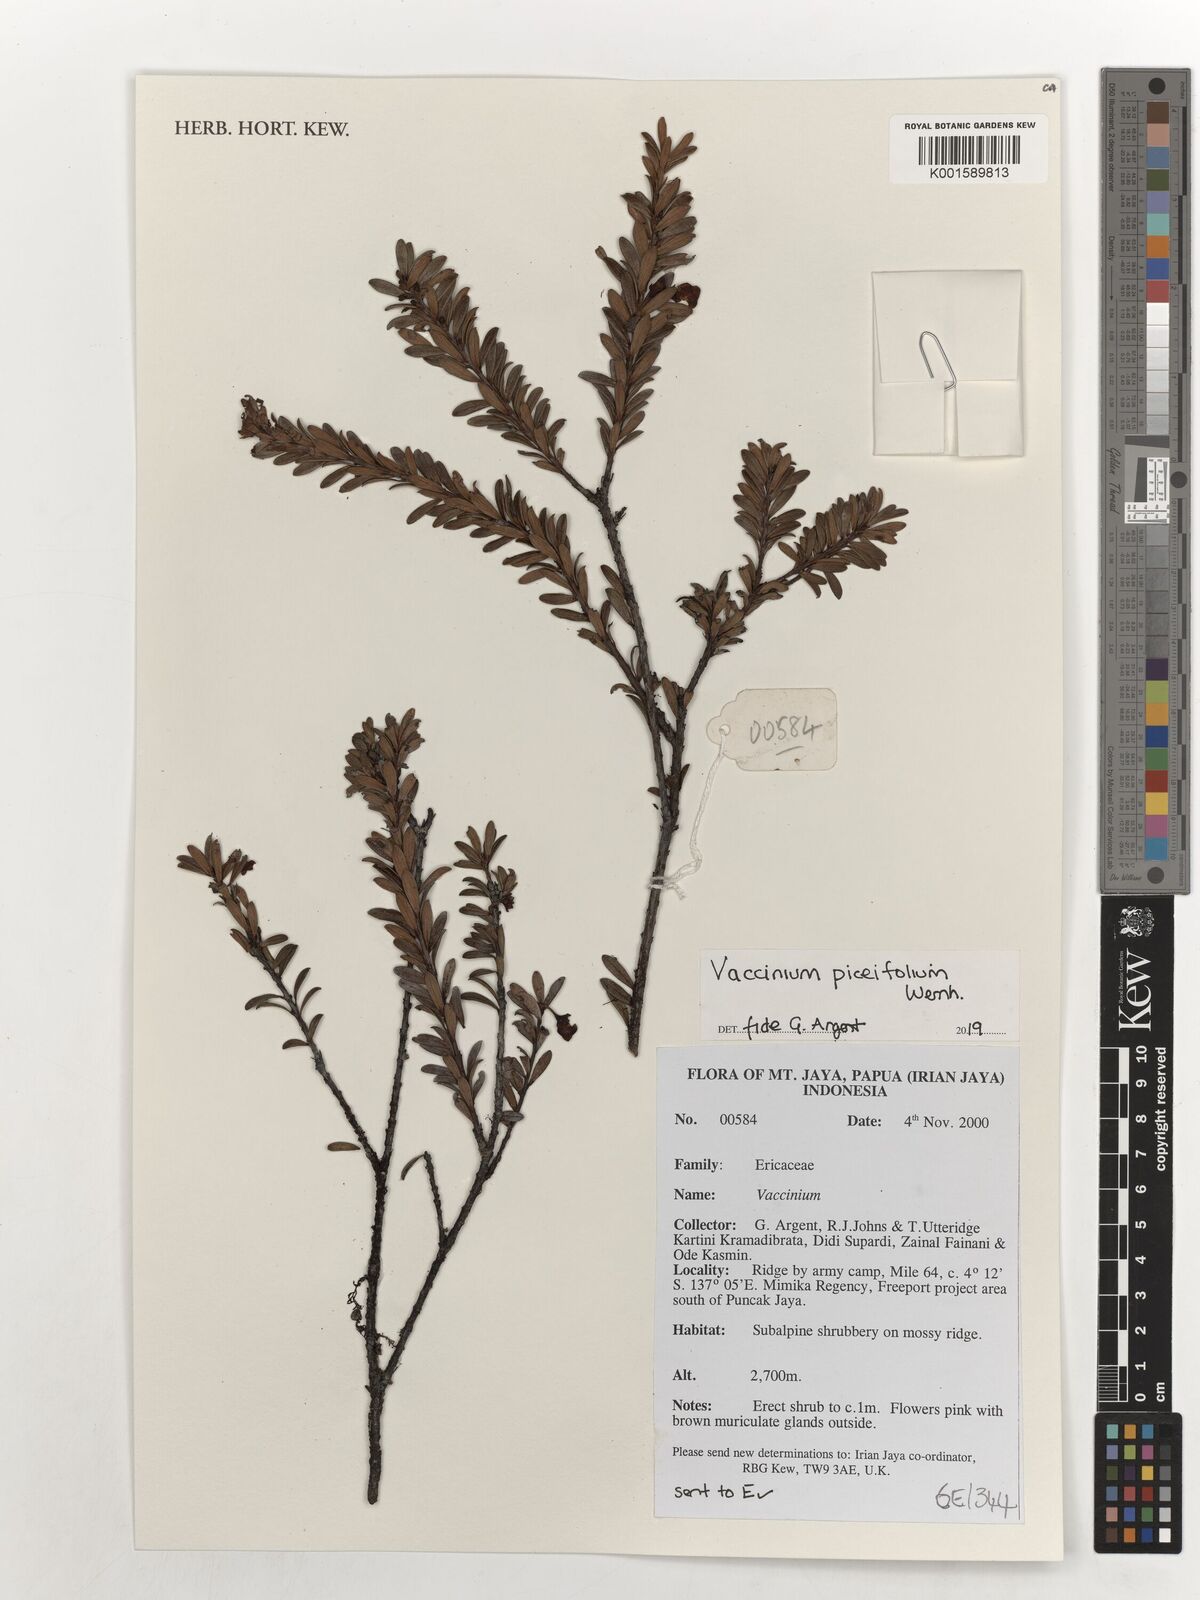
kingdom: Plantae
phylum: Tracheophyta
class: Magnoliopsida
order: Ericales
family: Ericaceae
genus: Vaccinium
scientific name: Vaccinium piceifolium
